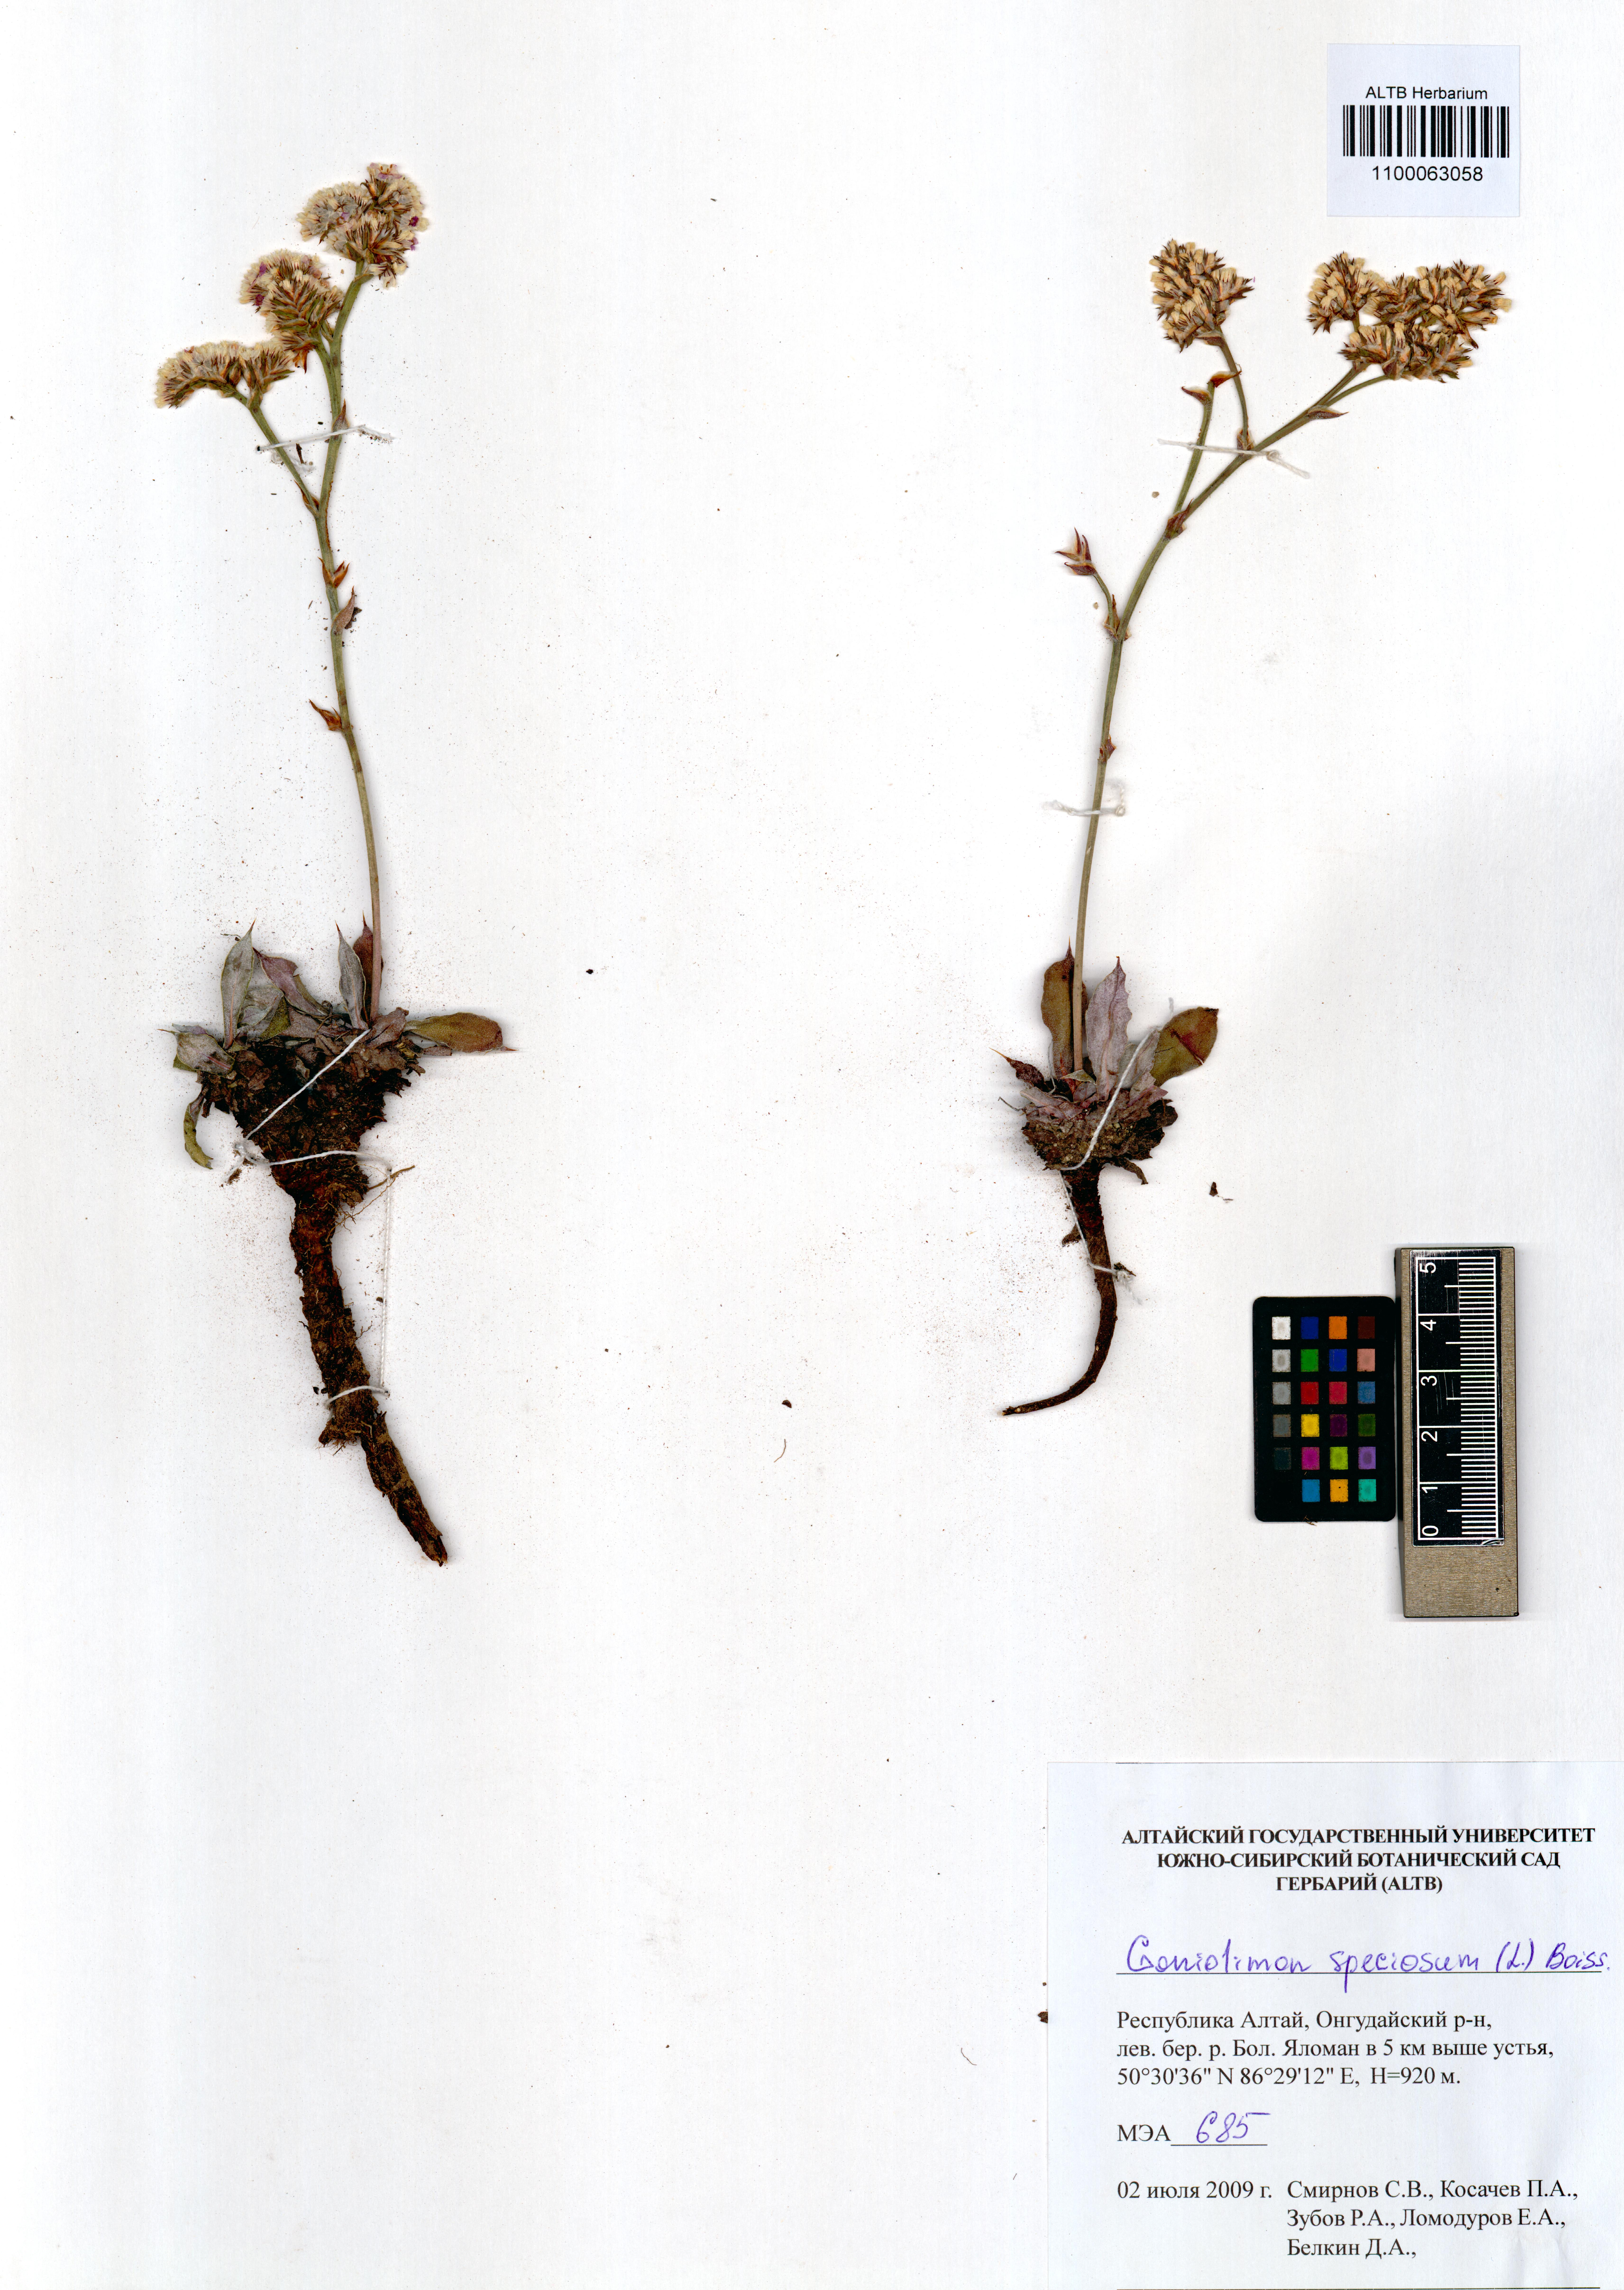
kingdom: Plantae
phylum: Tracheophyta
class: Magnoliopsida
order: Caryophyllales
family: Plumbaginaceae
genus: Goniolimon
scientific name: Goniolimon speciosum
